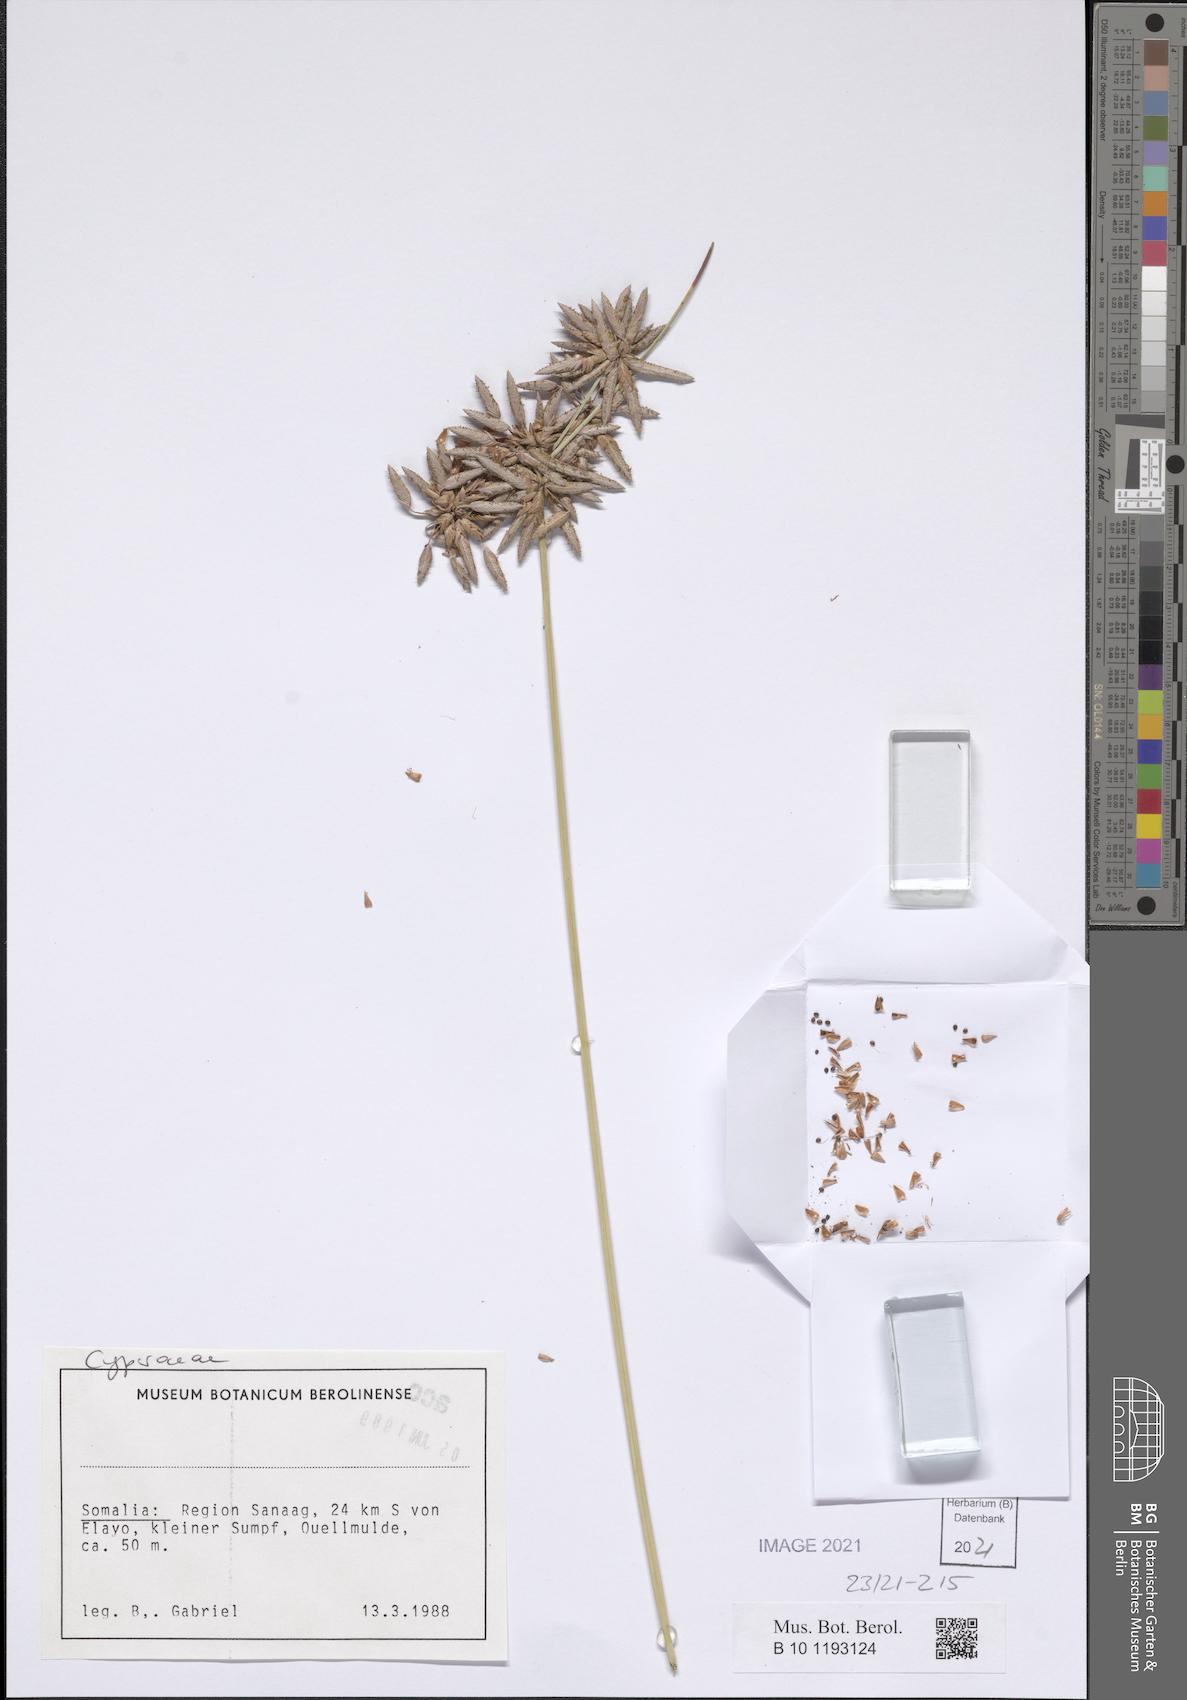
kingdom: Plantae
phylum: Tracheophyta
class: Liliopsida
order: Poales
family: Cyperaceae
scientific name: Cyperaceae
